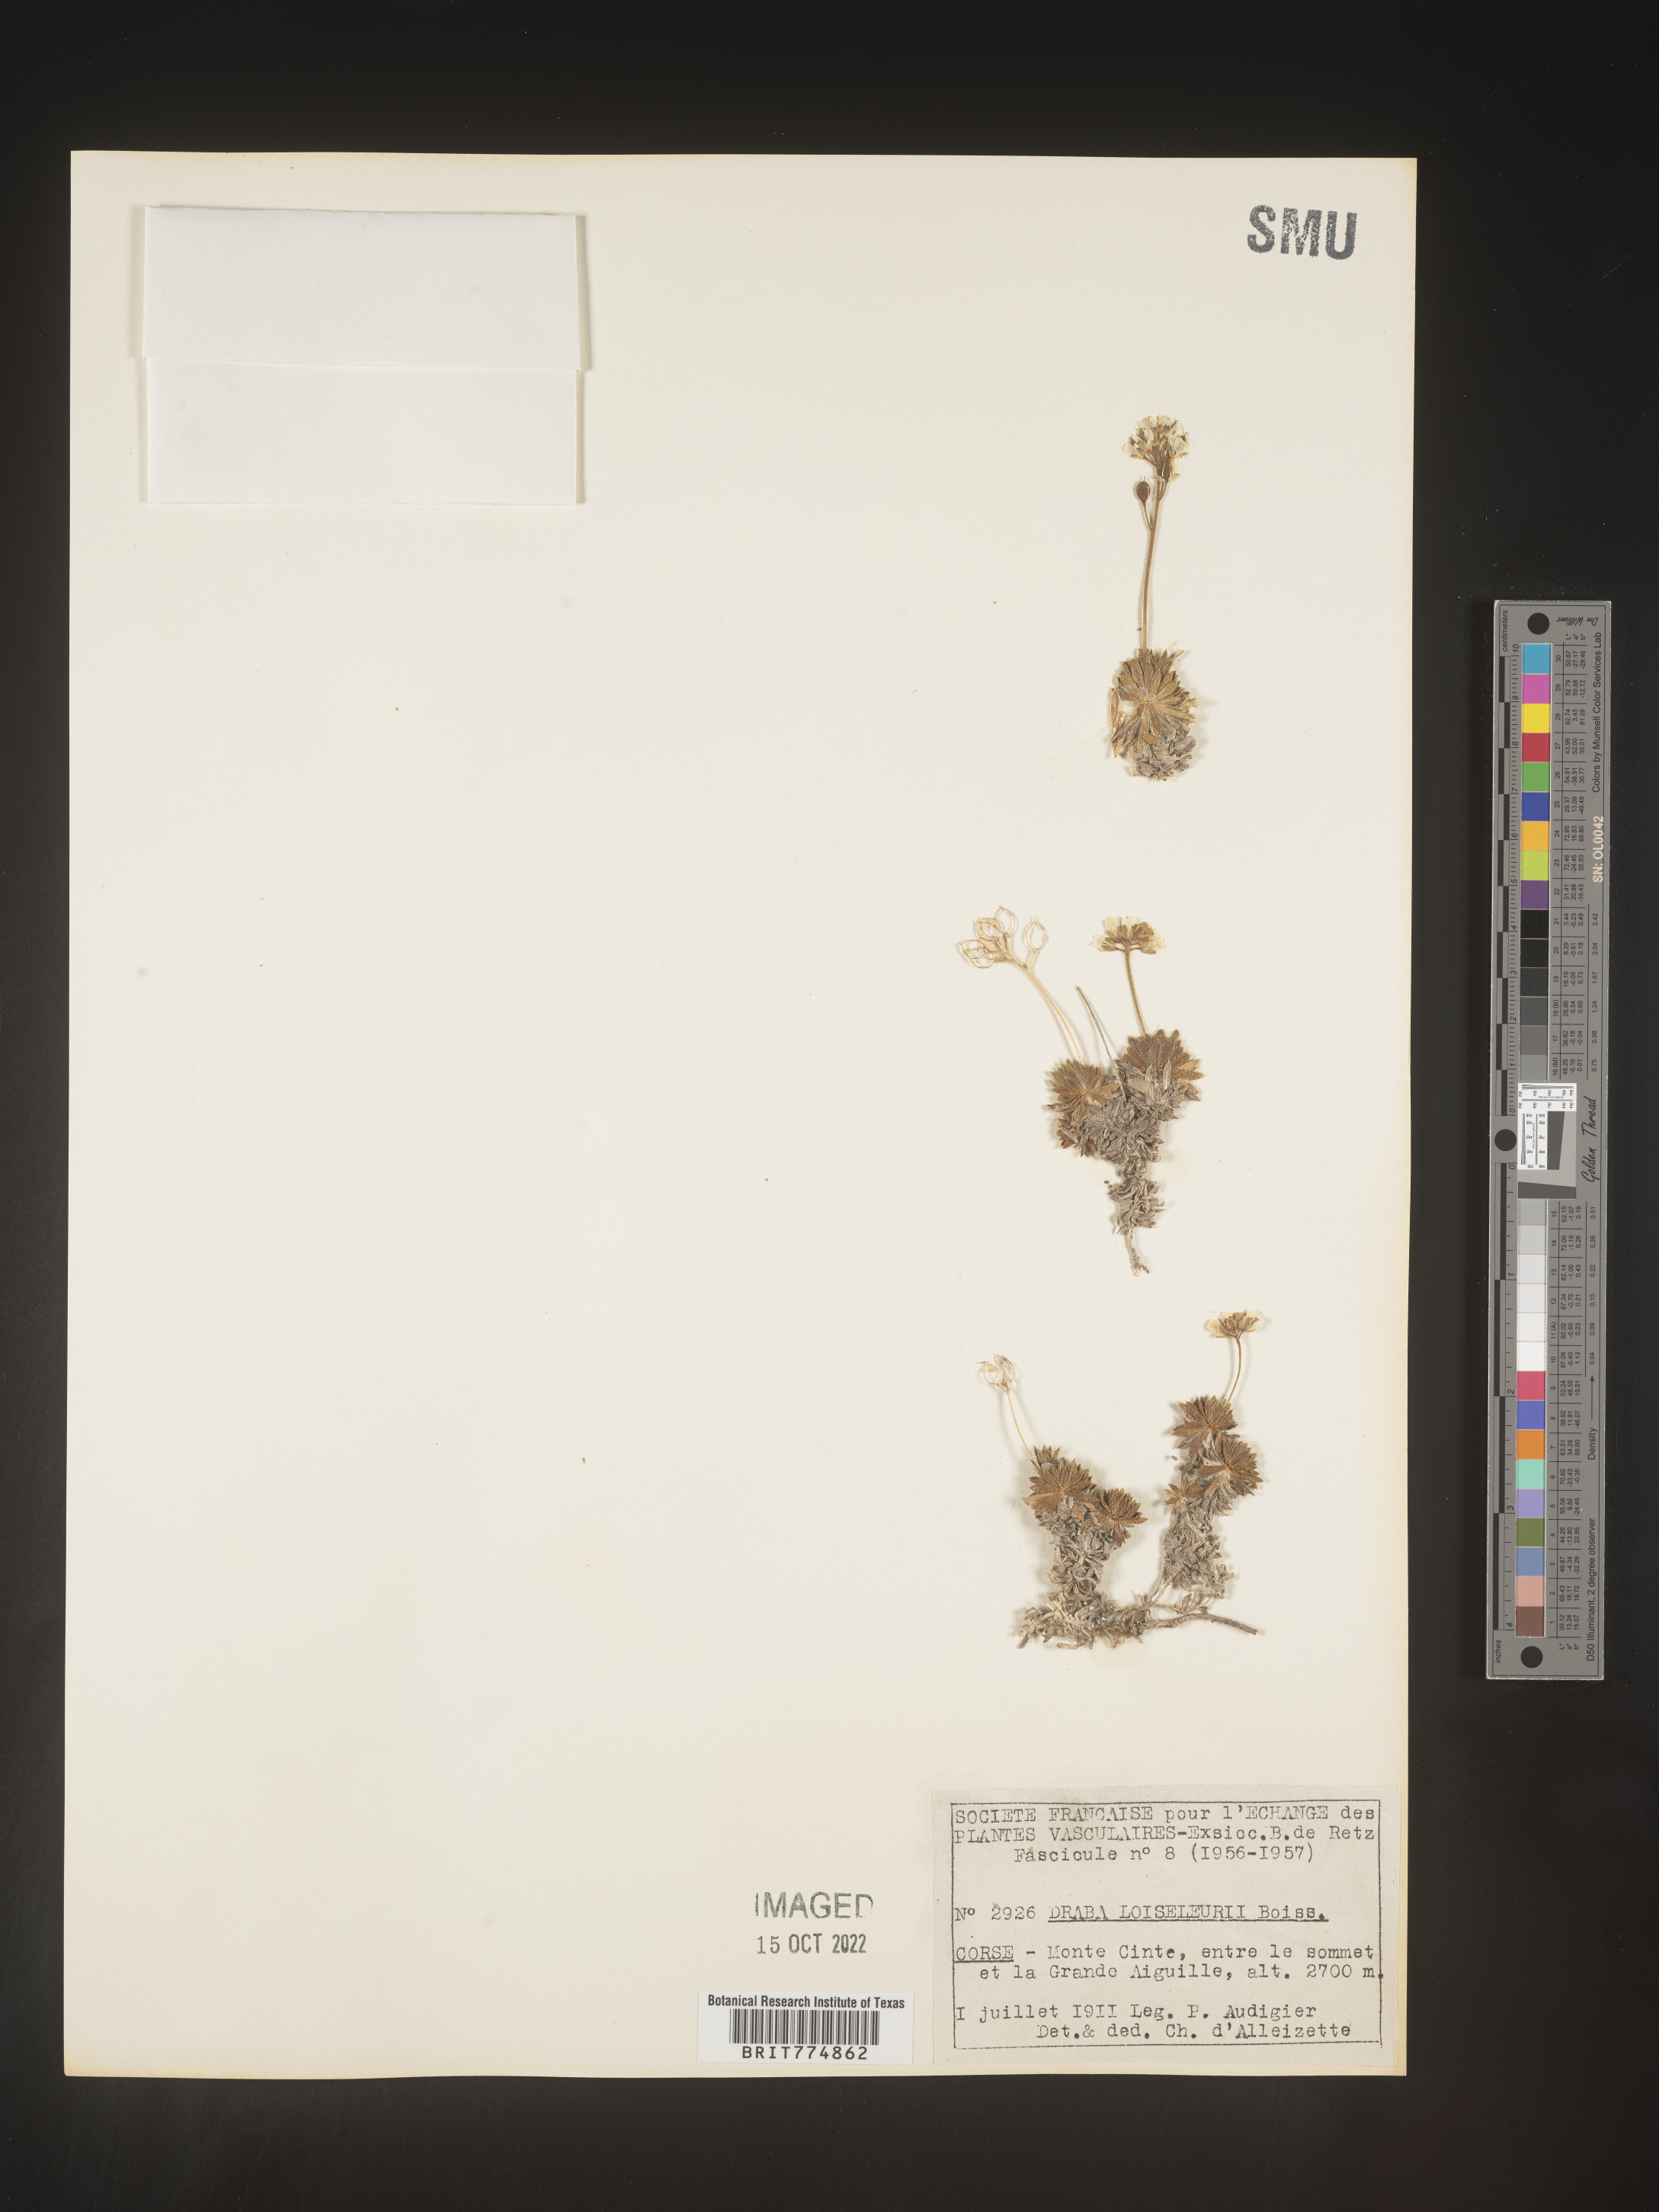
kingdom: Plantae
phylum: Tracheophyta
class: Magnoliopsida
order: Brassicales
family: Brassicaceae
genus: Draba
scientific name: Draba
